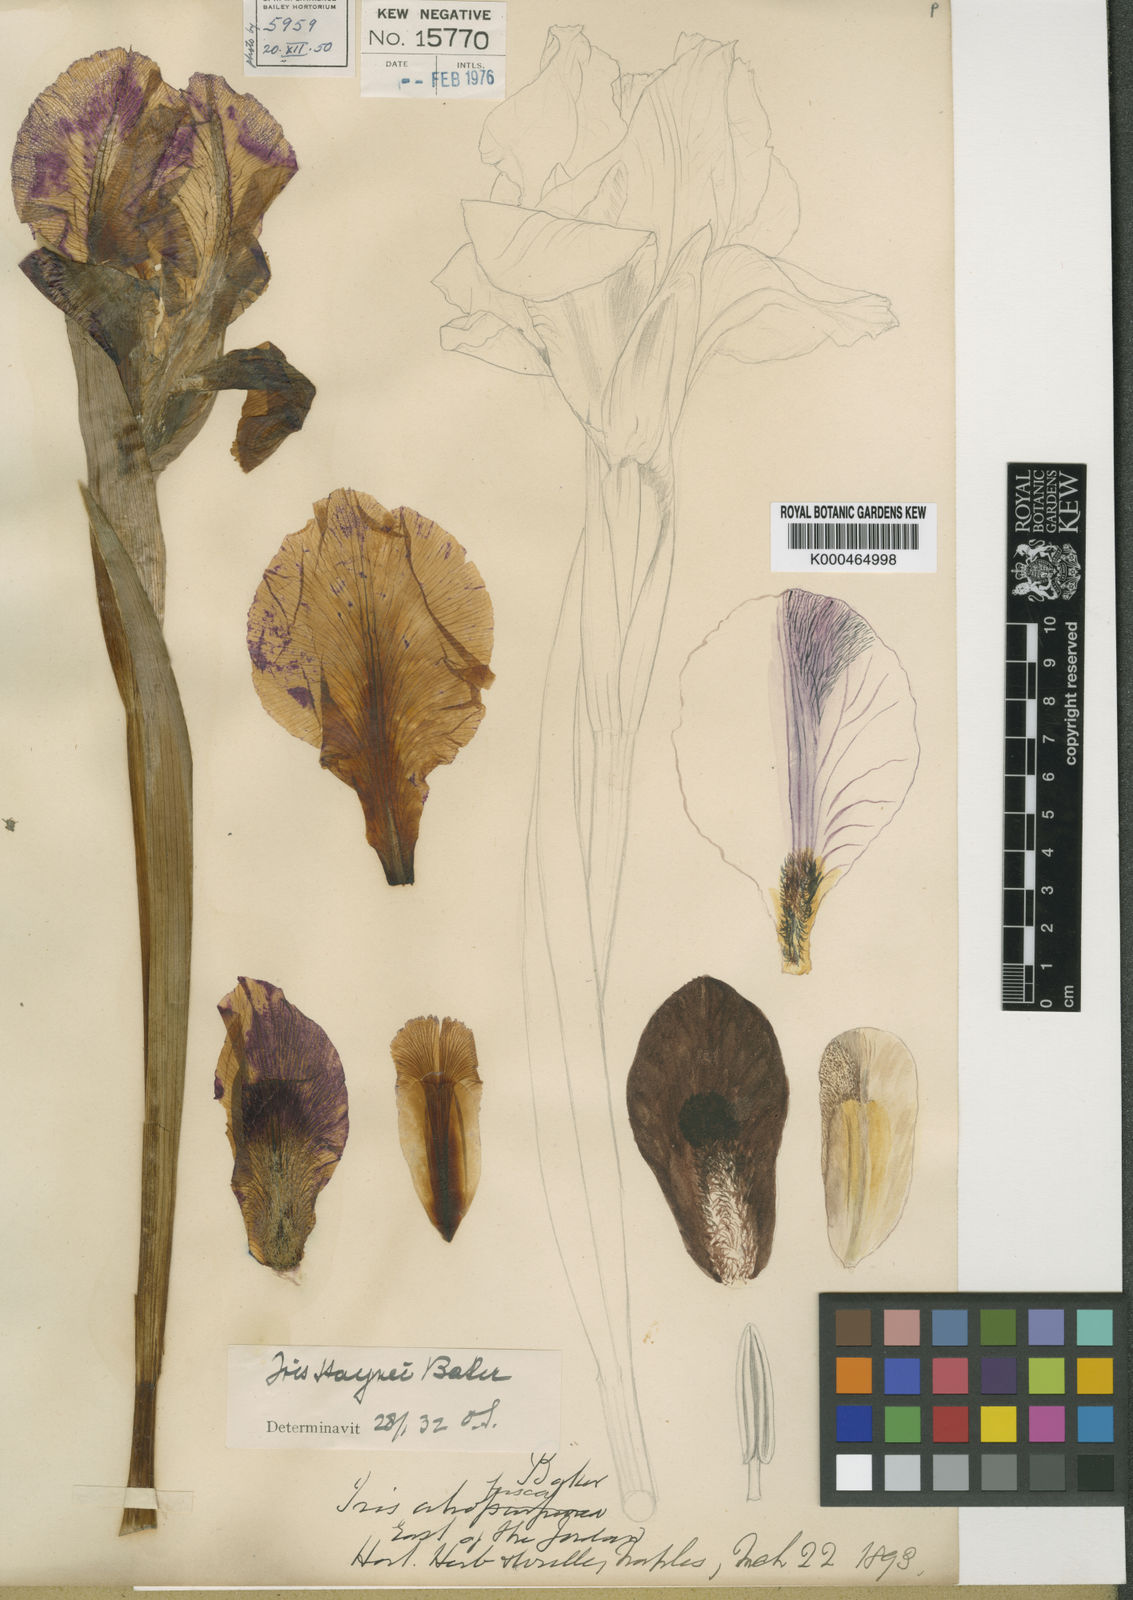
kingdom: Plantae
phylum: Tracheophyta
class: Liliopsida
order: Asparagales
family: Iridaceae
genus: Iris
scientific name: Iris atrofusca
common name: Asshafa iris
